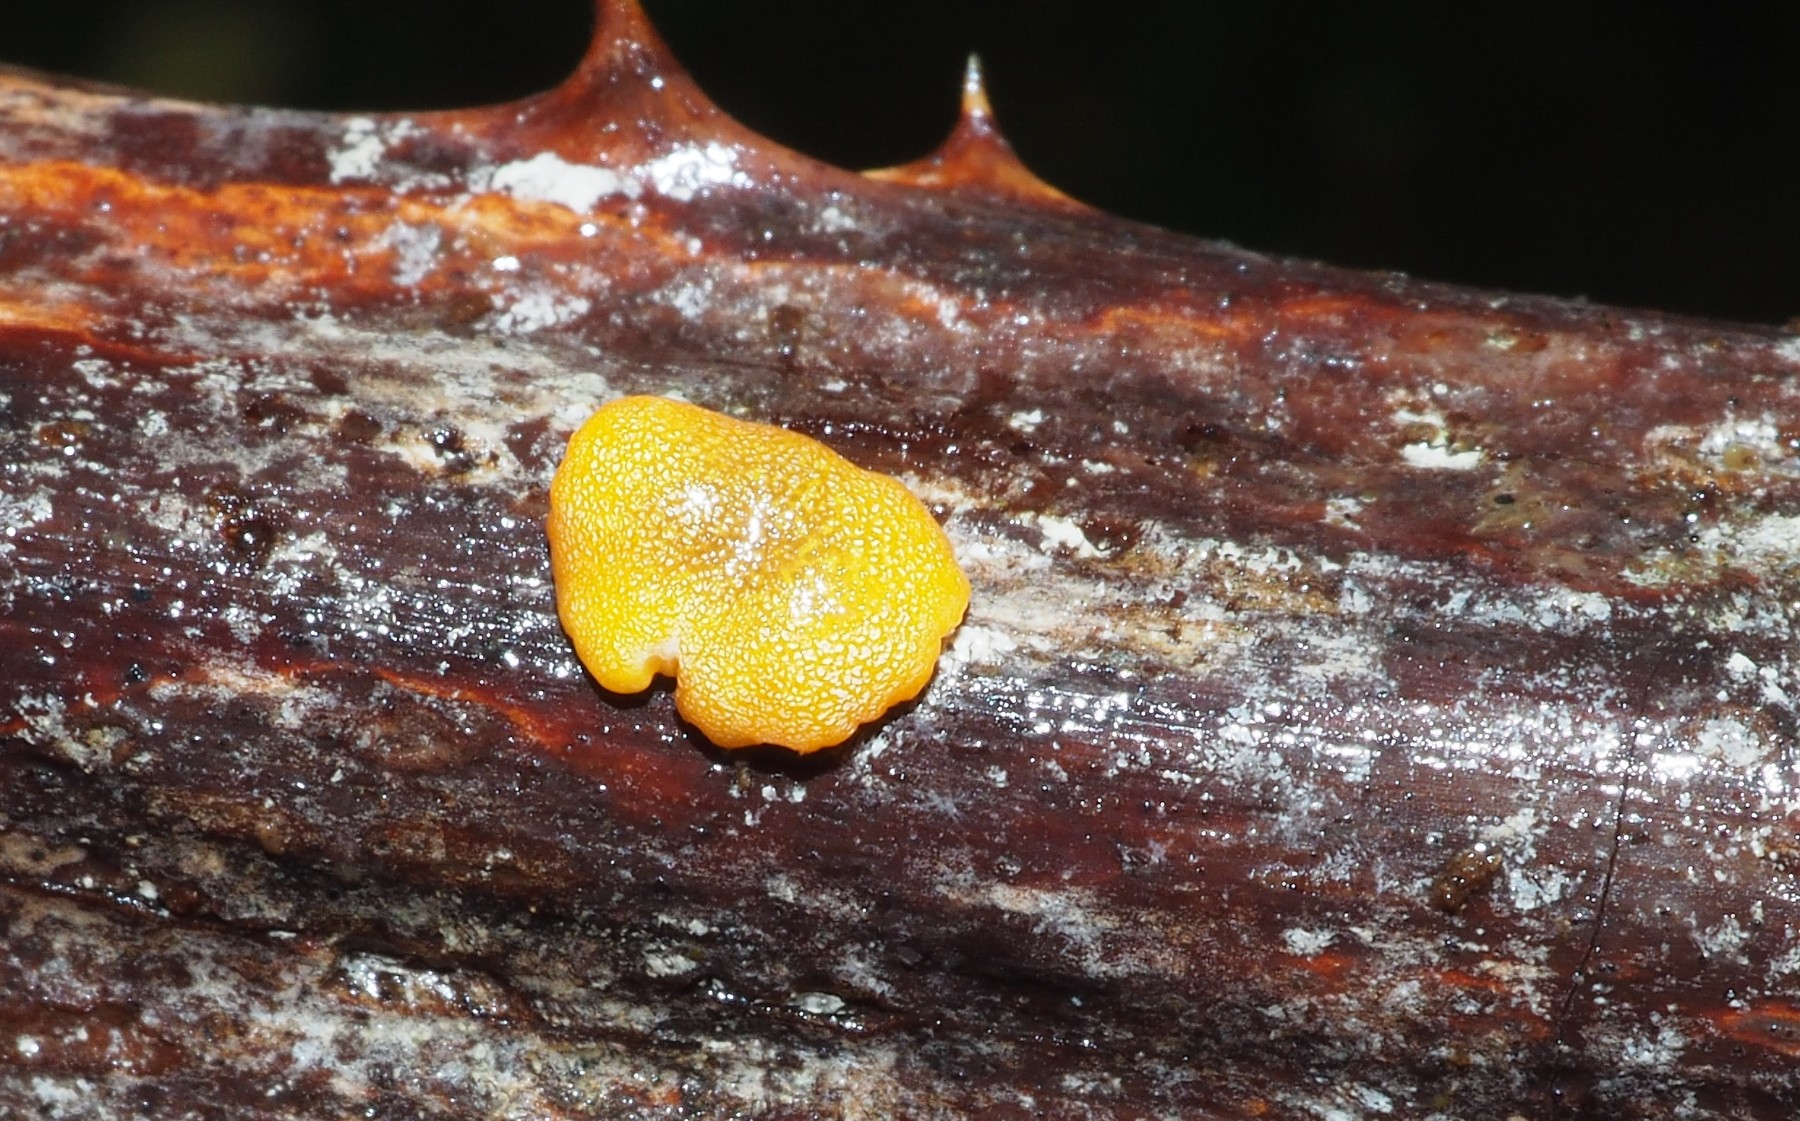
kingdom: Fungi
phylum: Ascomycota
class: Sordariomycetes
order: Hypocreales
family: Hypocreaceae
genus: Trichoderma
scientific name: Trichoderma aureoviride
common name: æggegul kødkerne
